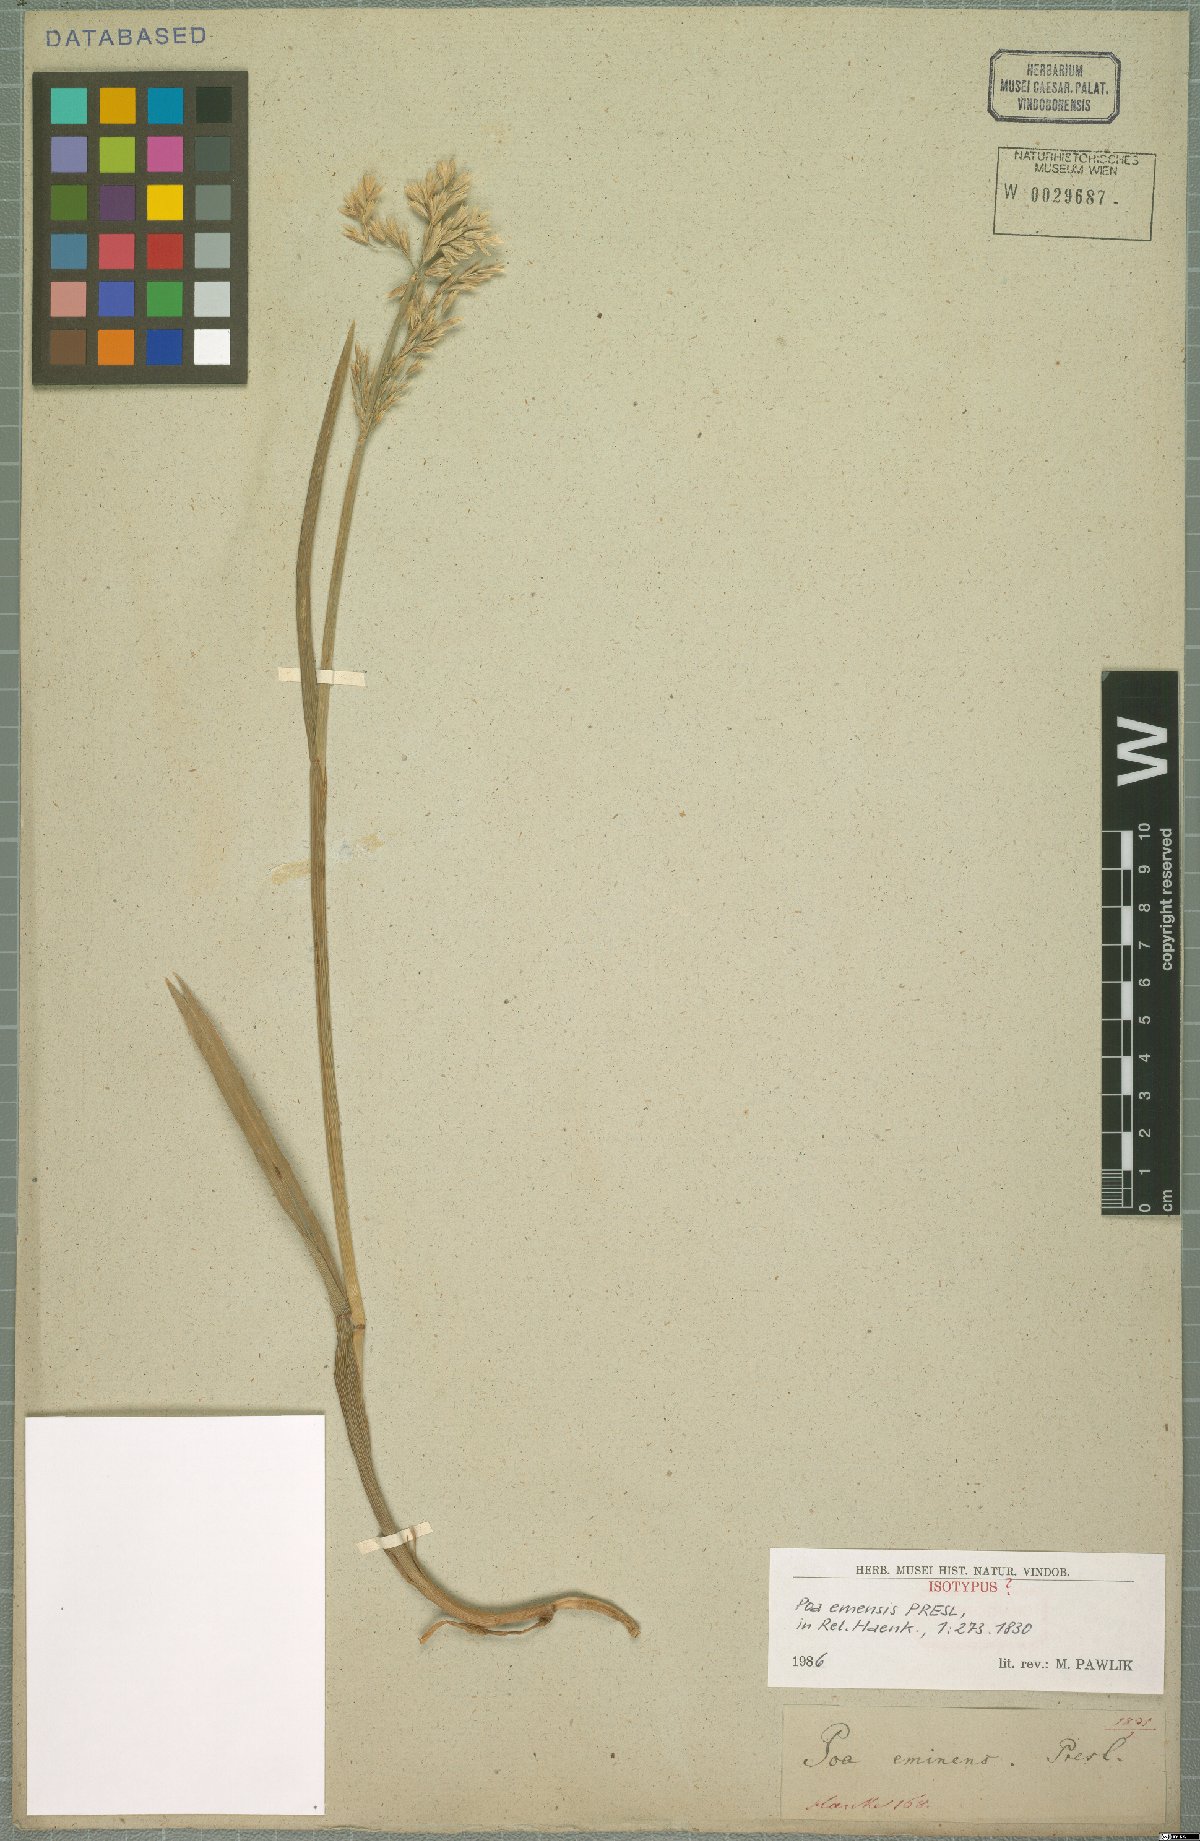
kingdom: Plantae
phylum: Tracheophyta
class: Liliopsida
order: Poales
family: Poaceae
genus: Arctopoa
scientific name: Arctopoa eminens
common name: Eminent bluegrass
